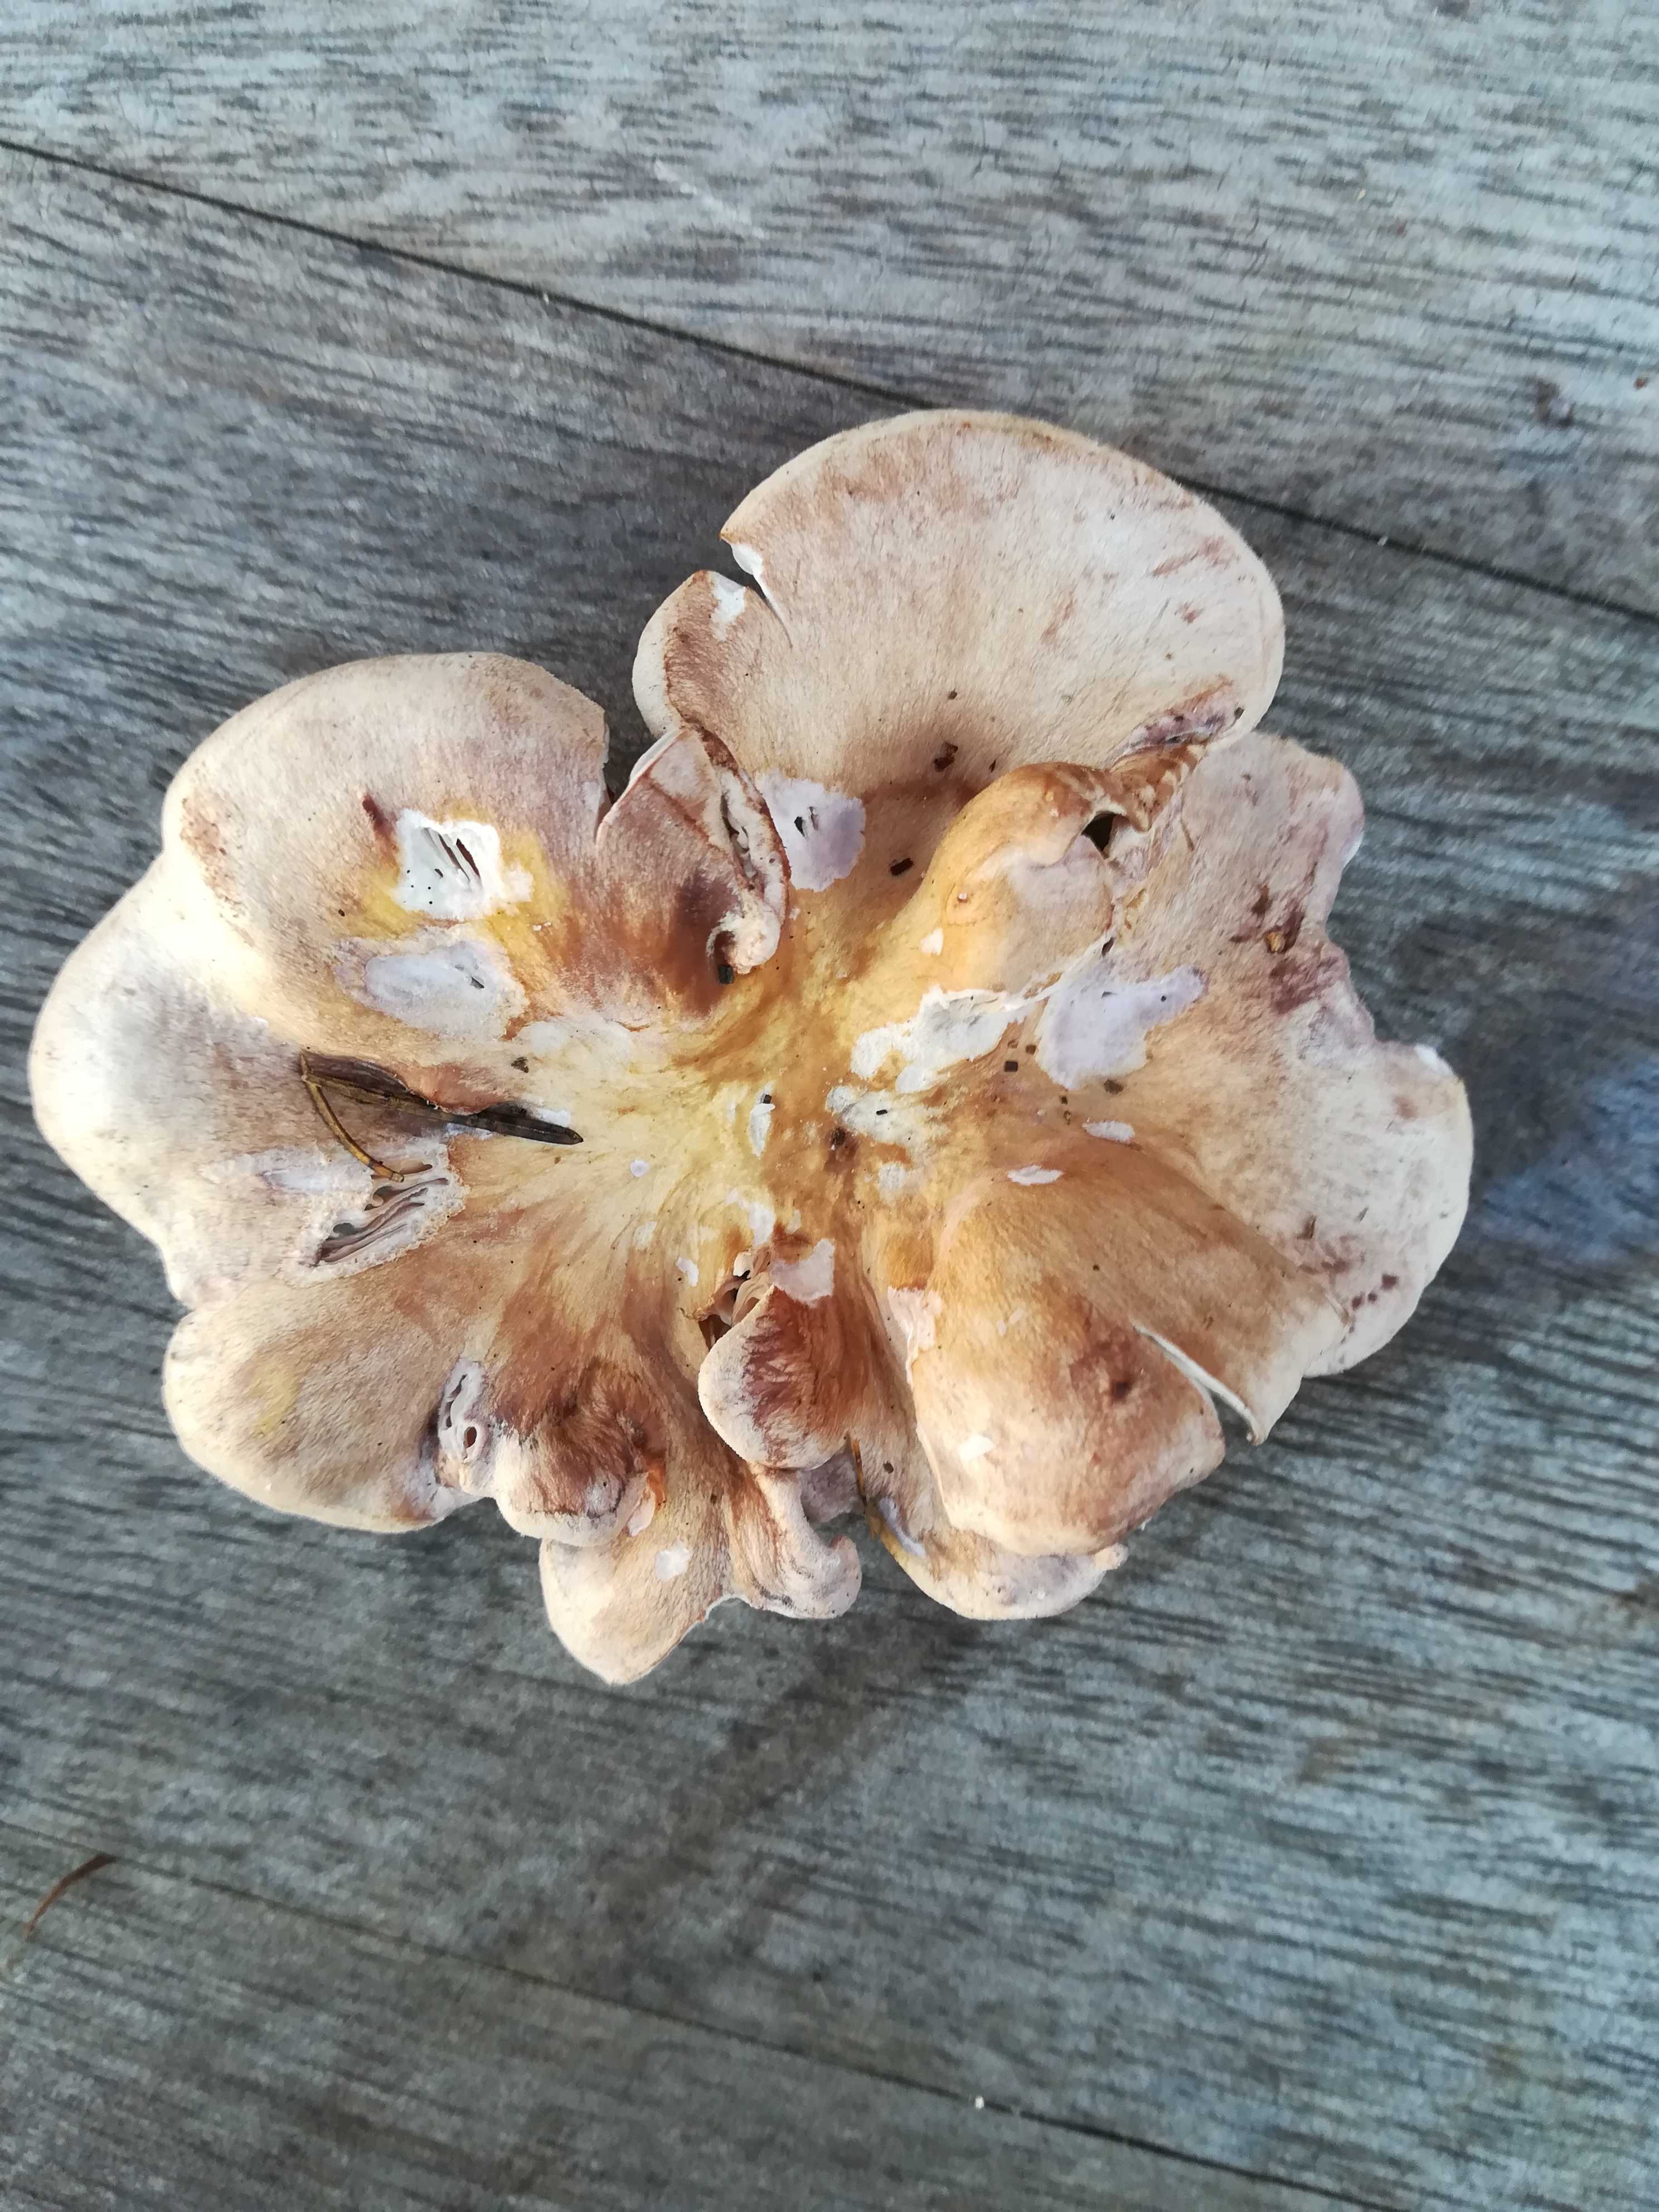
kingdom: Fungi
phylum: Basidiomycota
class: Agaricomycetes
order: Polyporales
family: Panaceae
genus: Panus
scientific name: Panus conchatus
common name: filtstokket læderhat
